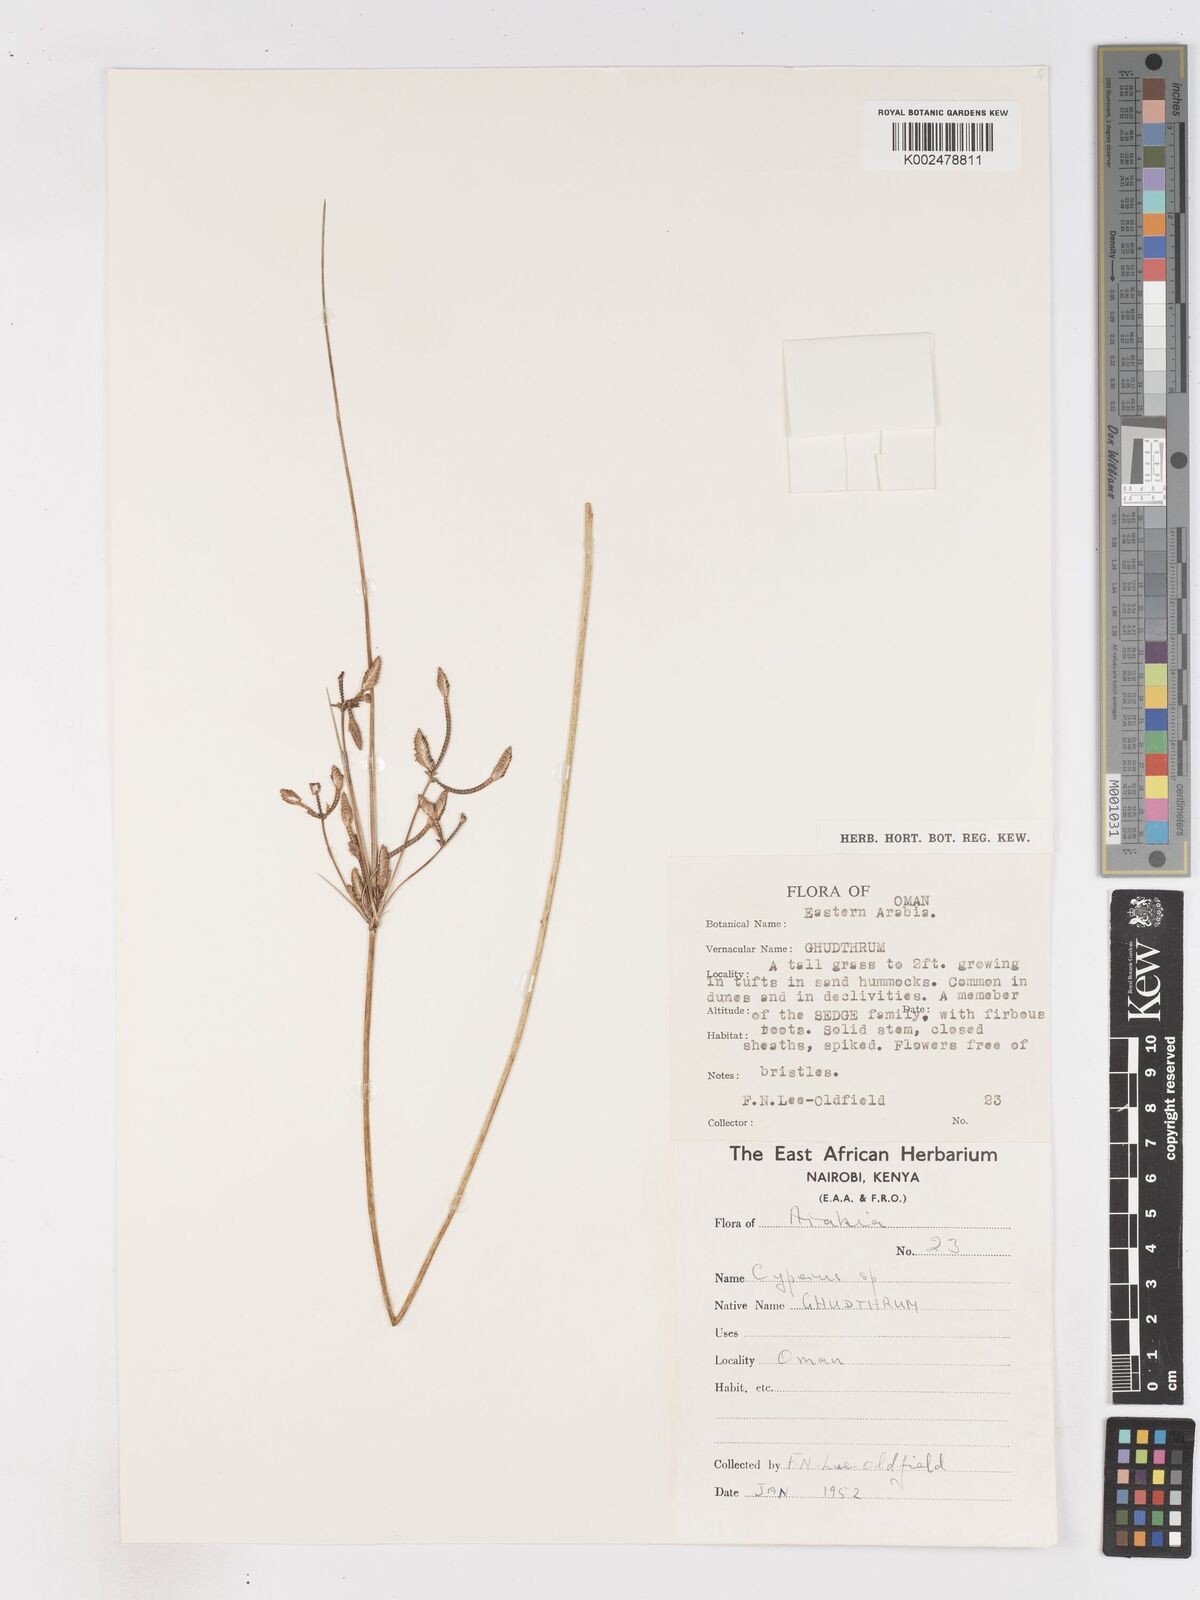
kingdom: Plantae
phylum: Tracheophyta
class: Liliopsida
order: Poales
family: Cyperaceae
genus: Cyperus
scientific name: Cyperus aucheri
